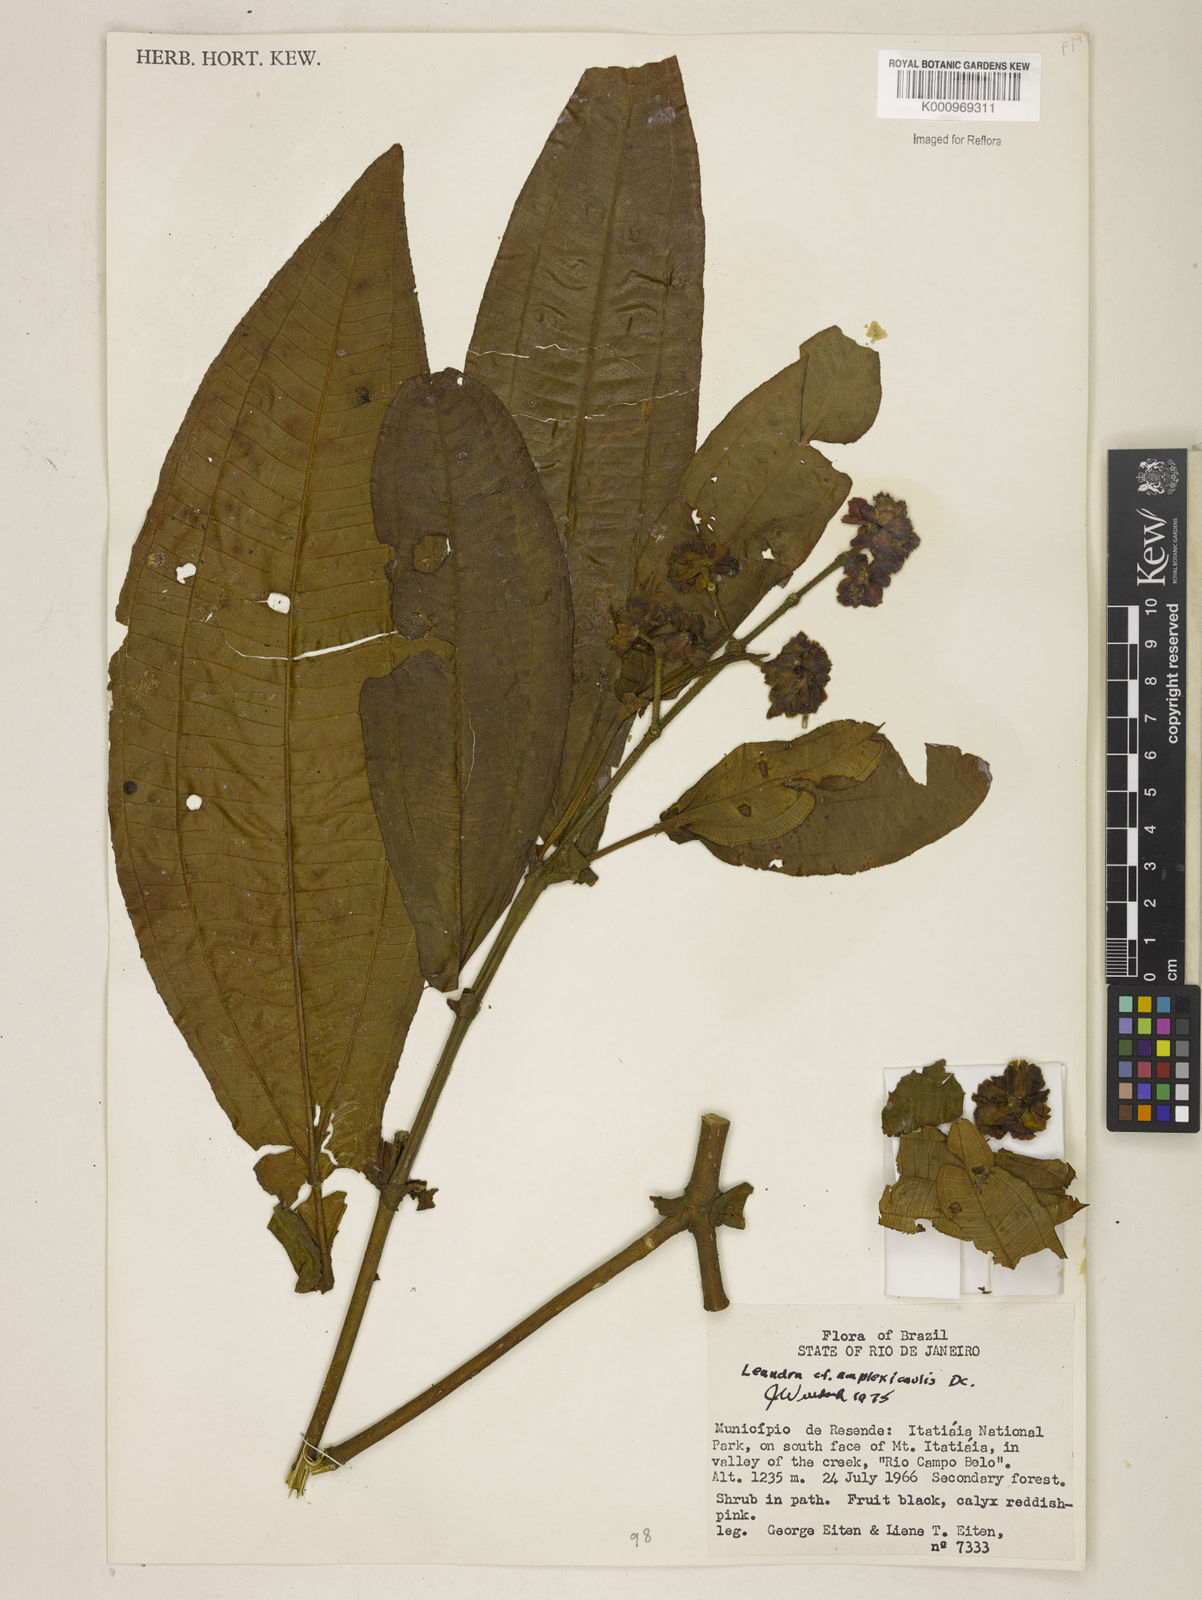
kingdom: Plantae
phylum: Tracheophyta
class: Magnoliopsida
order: Myrtales
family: Melastomataceae
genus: Miconia
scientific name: Miconia pectinata
